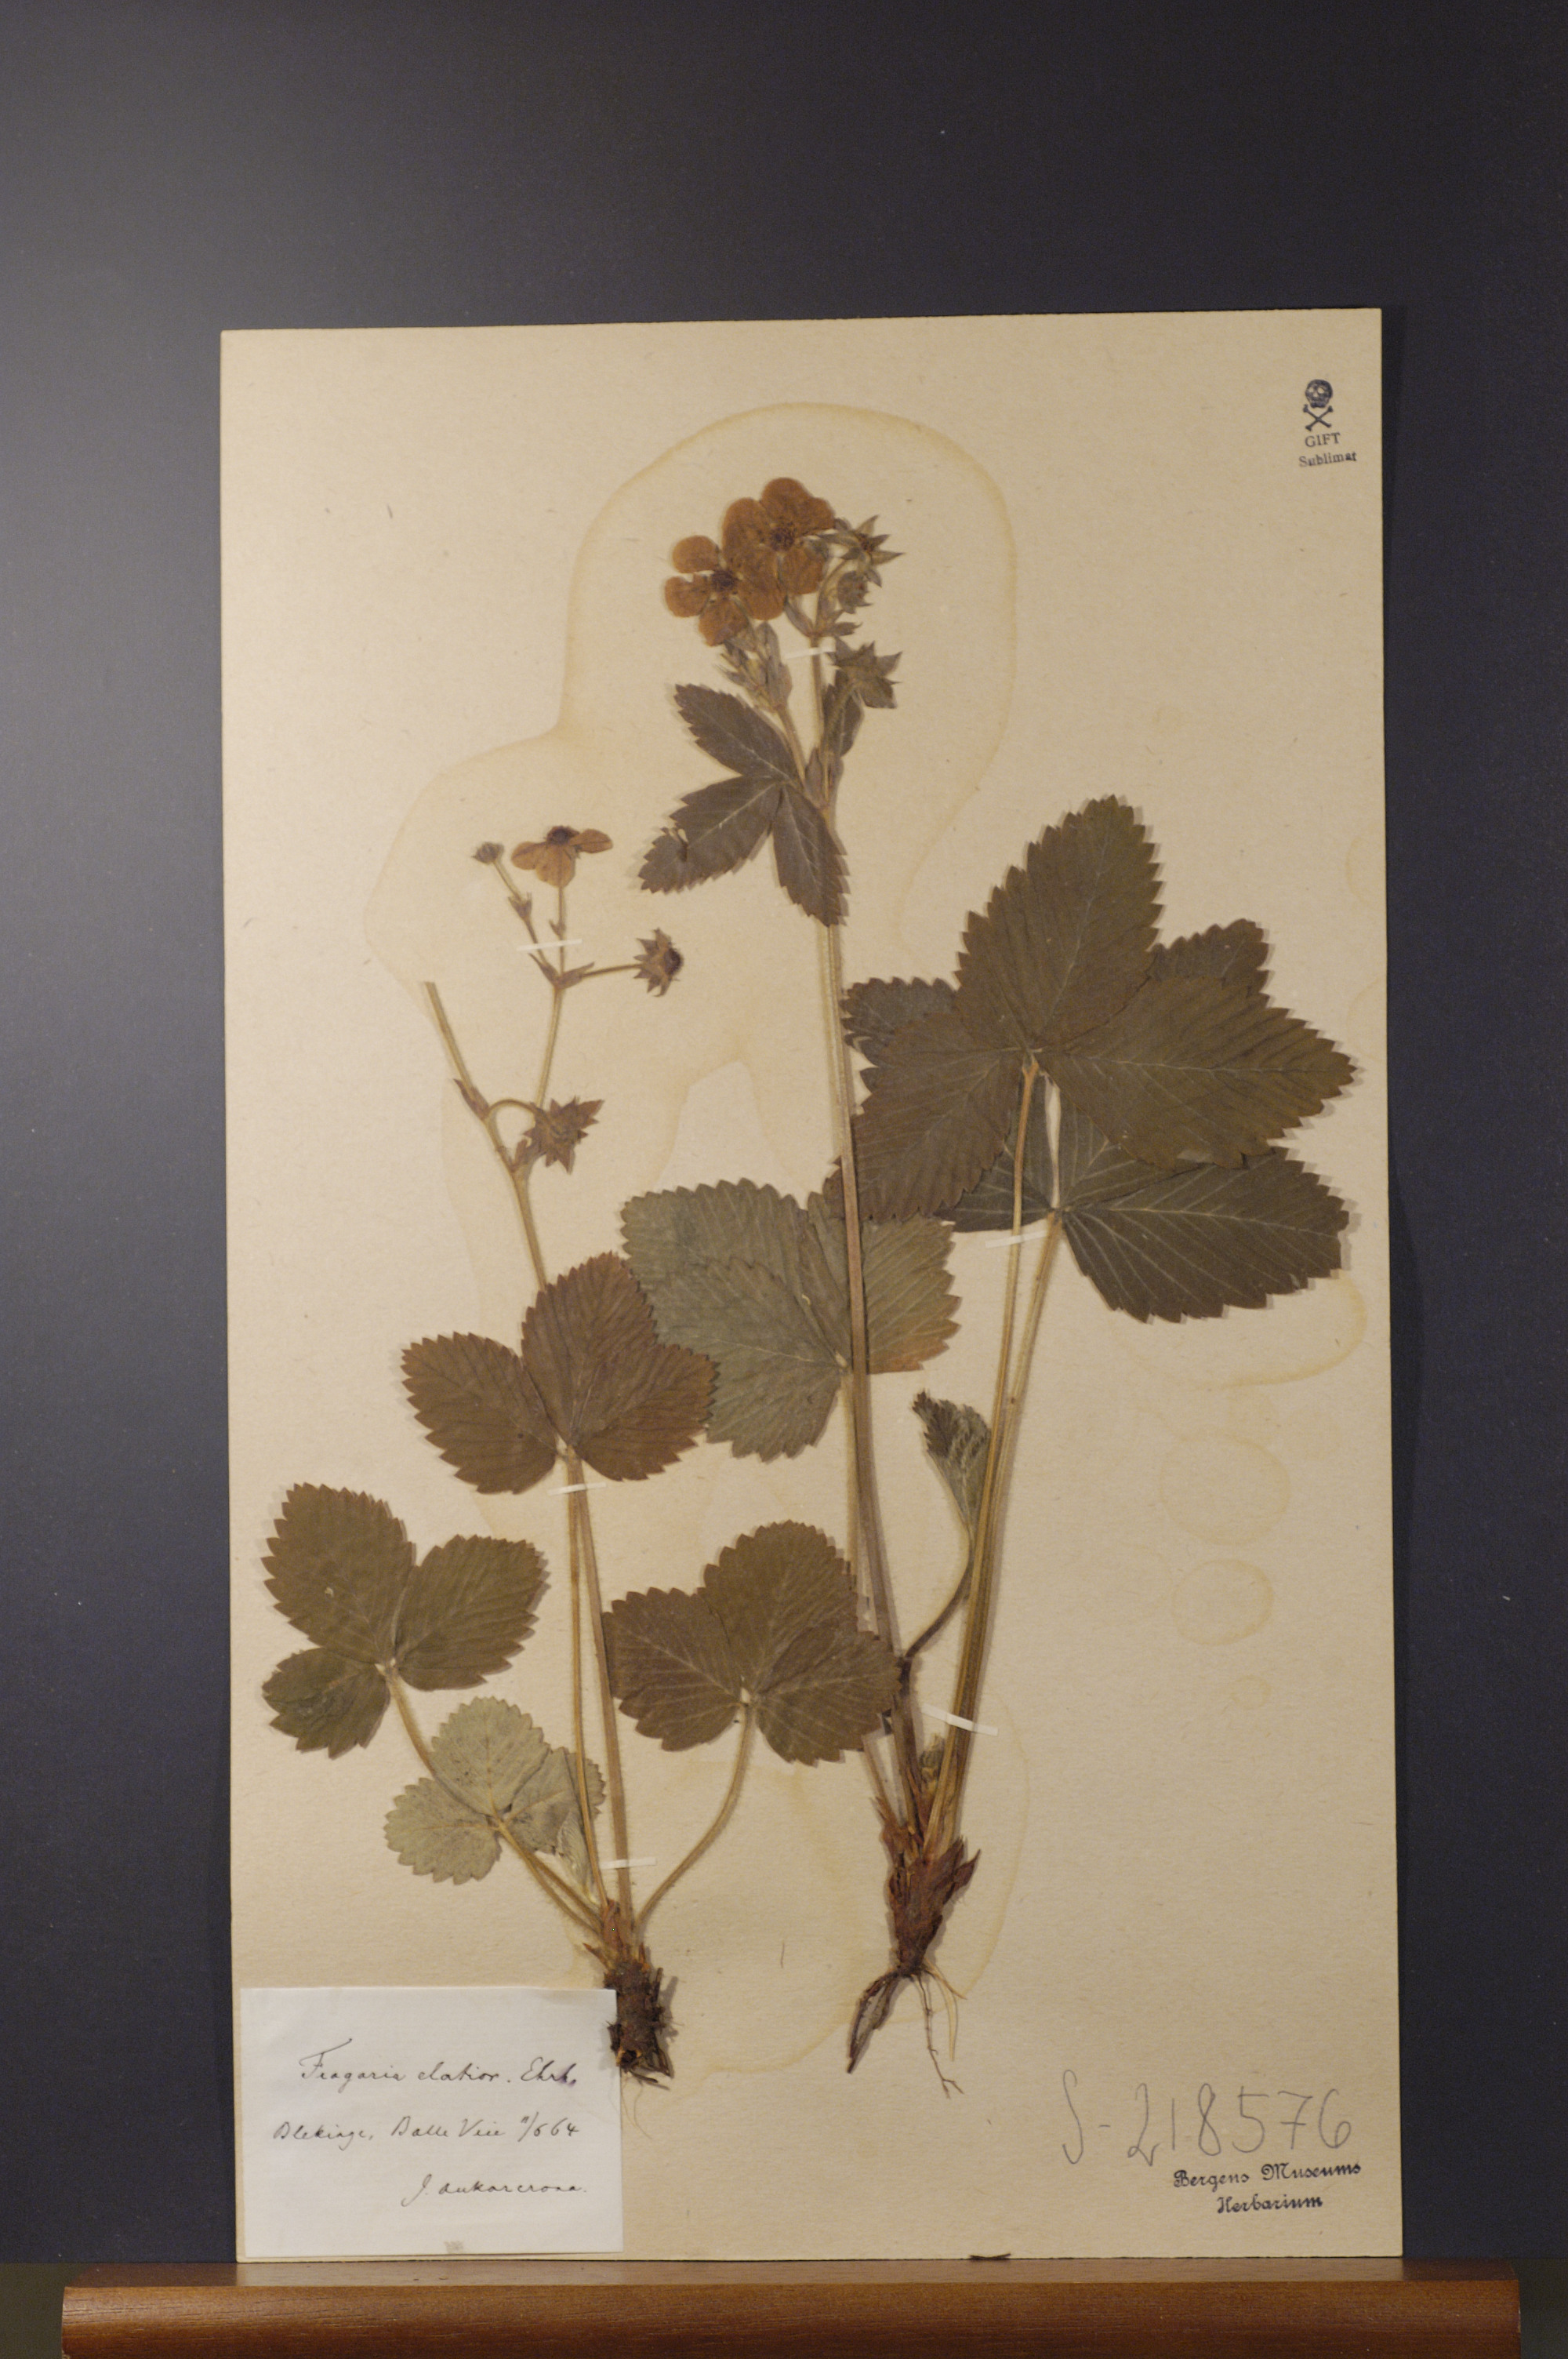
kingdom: Plantae
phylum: Tracheophyta
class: Magnoliopsida
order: Rosales
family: Rosaceae
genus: Fragaria
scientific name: Fragaria moschata
